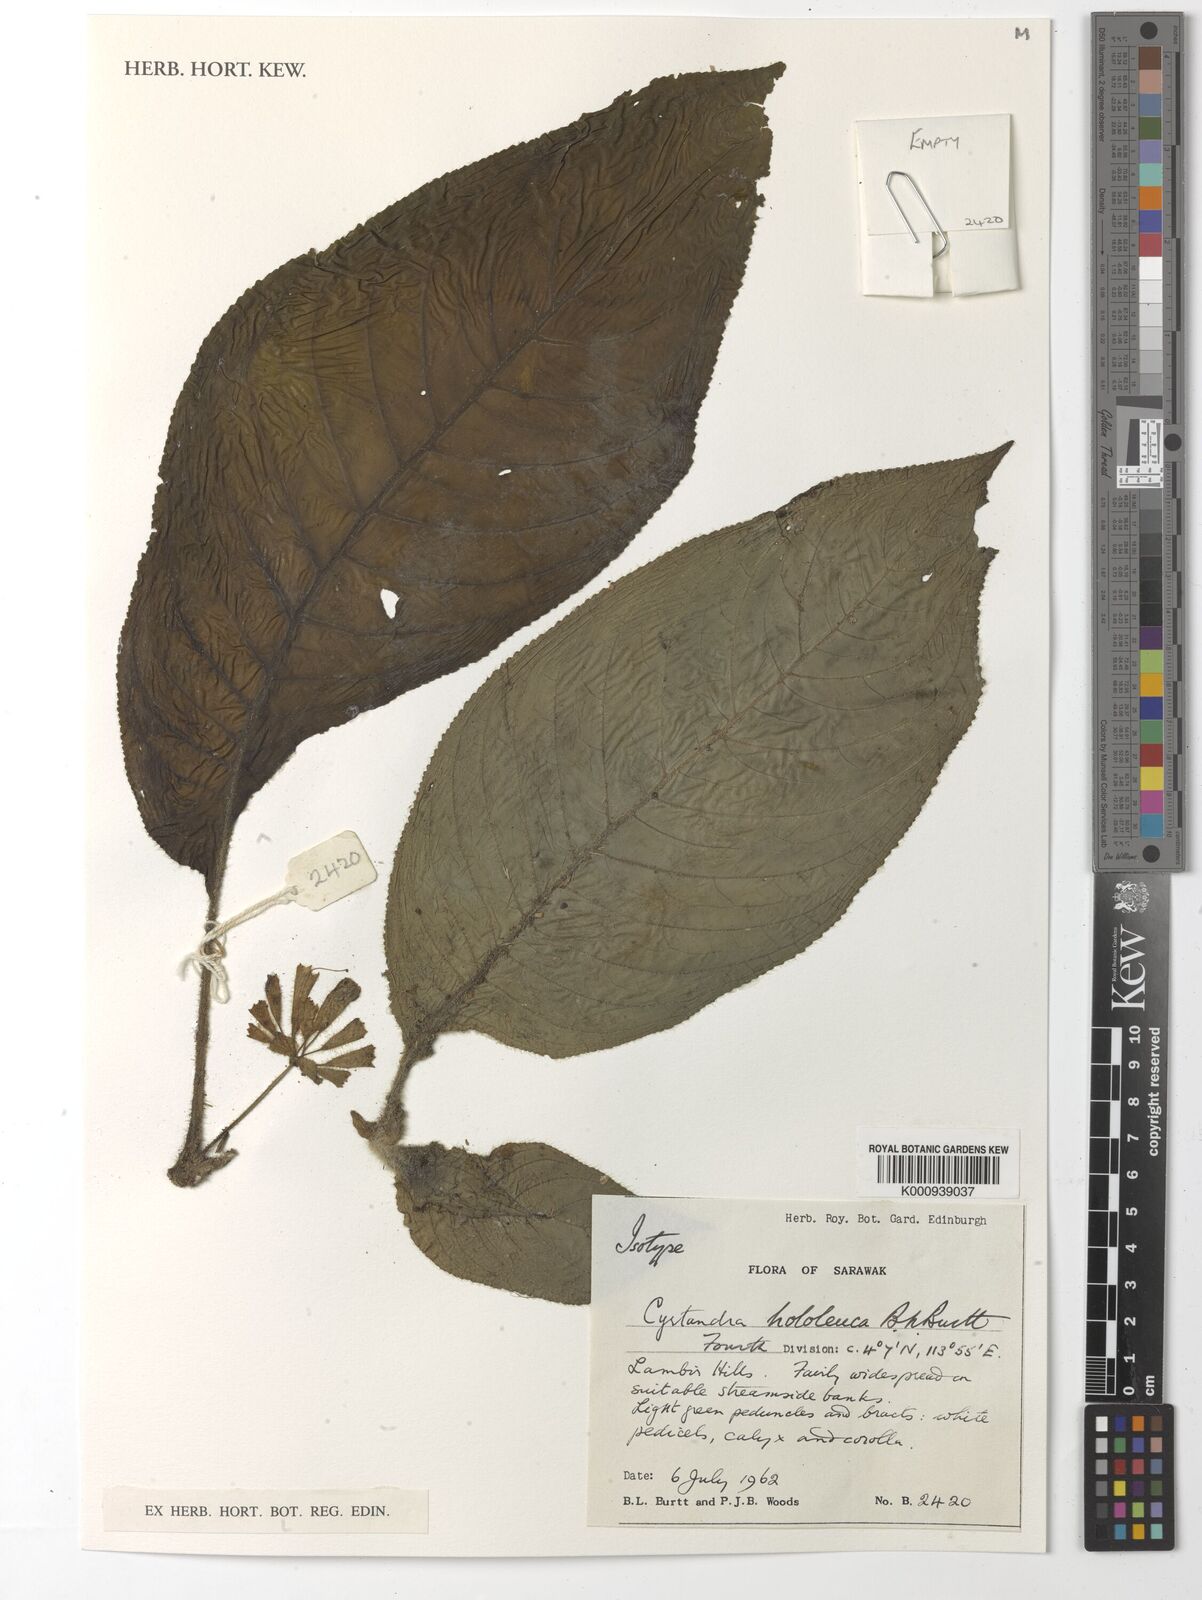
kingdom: Plantae
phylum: Tracheophyta
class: Magnoliopsida
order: Lamiales
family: Gesneriaceae
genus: Cyrtandra
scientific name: Cyrtandra hololeuca
